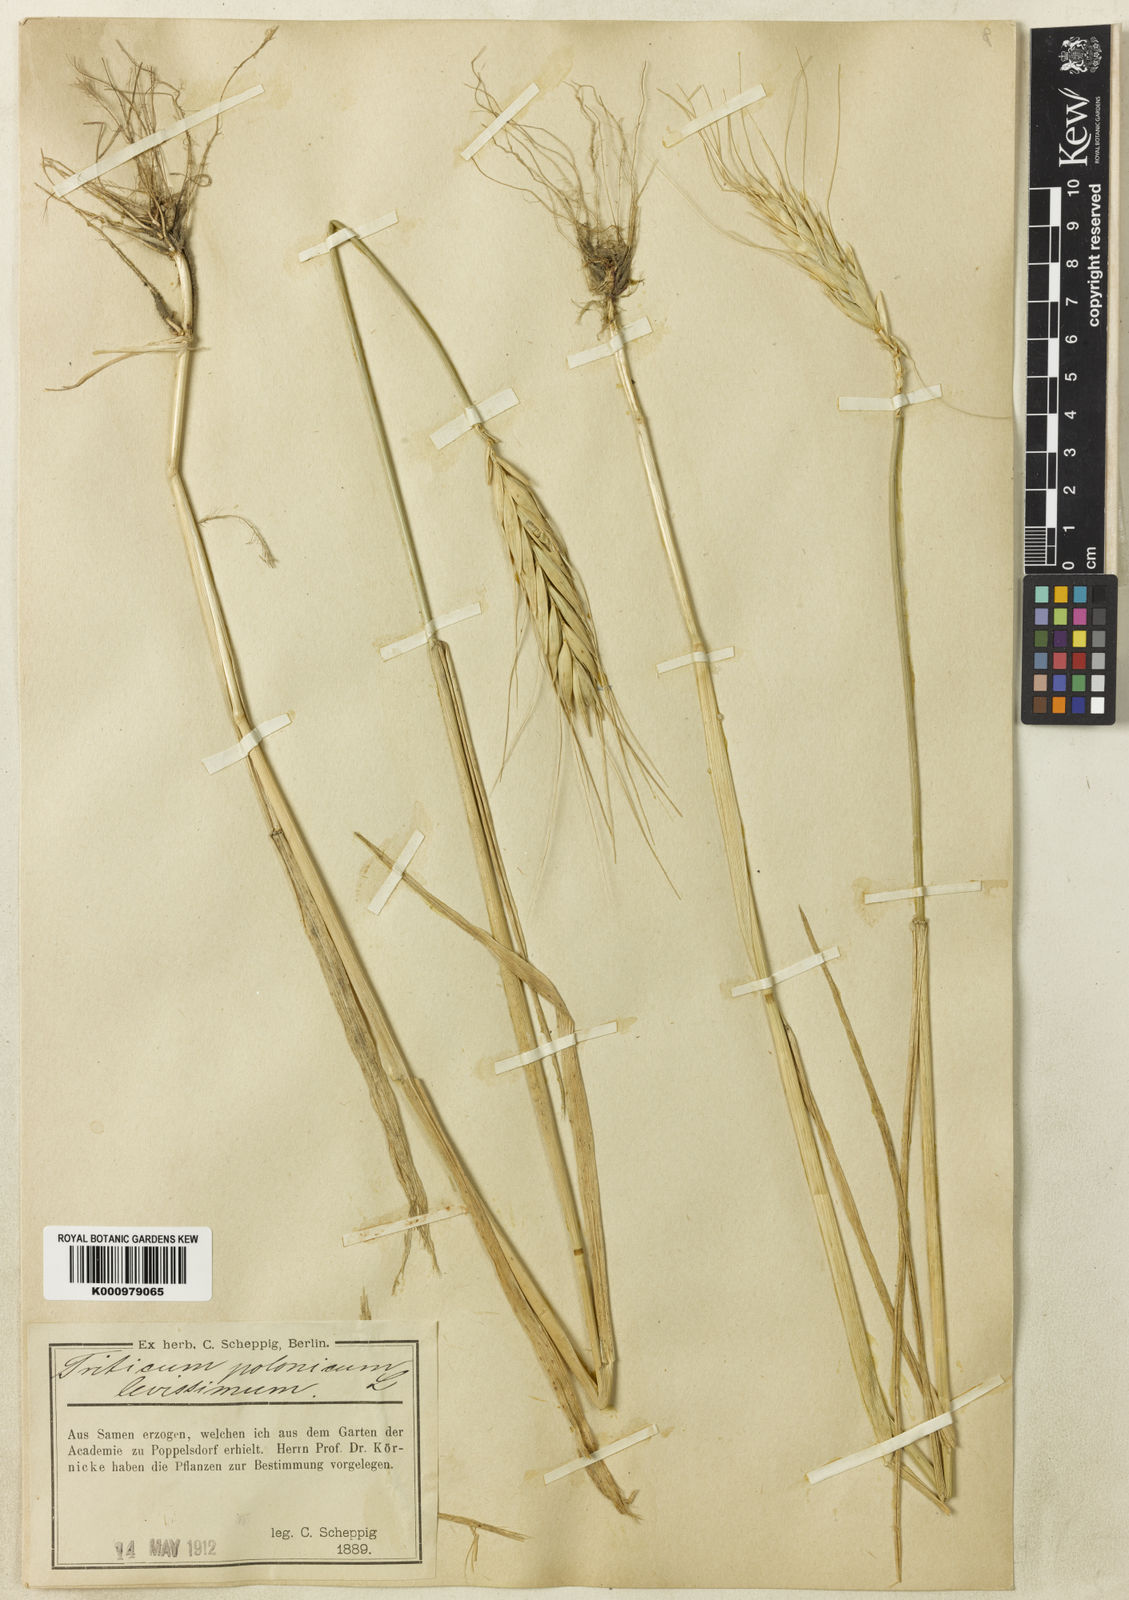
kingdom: Plantae
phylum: Tracheophyta
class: Liliopsida
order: Poales
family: Poaceae
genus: Triticum
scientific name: Triticum turgidum
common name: Rivet wheat
